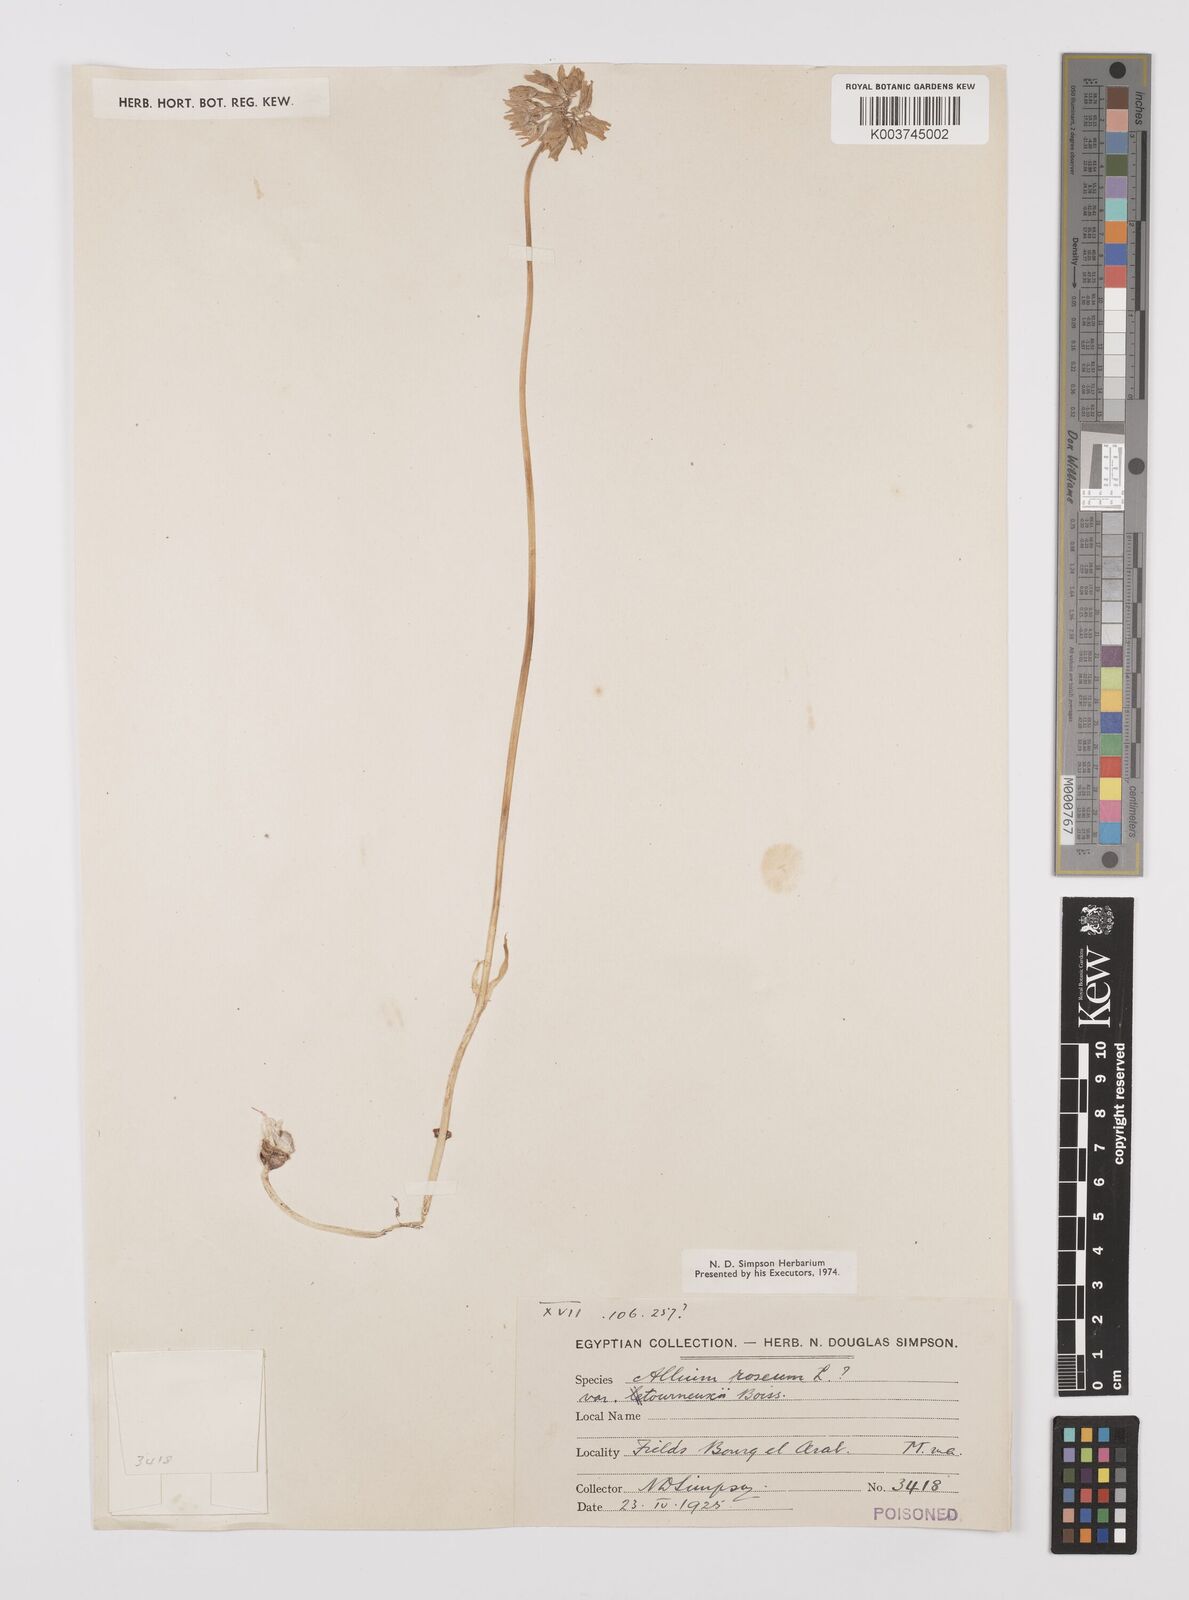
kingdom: Plantae
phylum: Tracheophyta
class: Liliopsida
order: Asparagales
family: Amaryllidaceae
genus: Allium
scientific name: Allium roseum
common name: Rosy garlic
